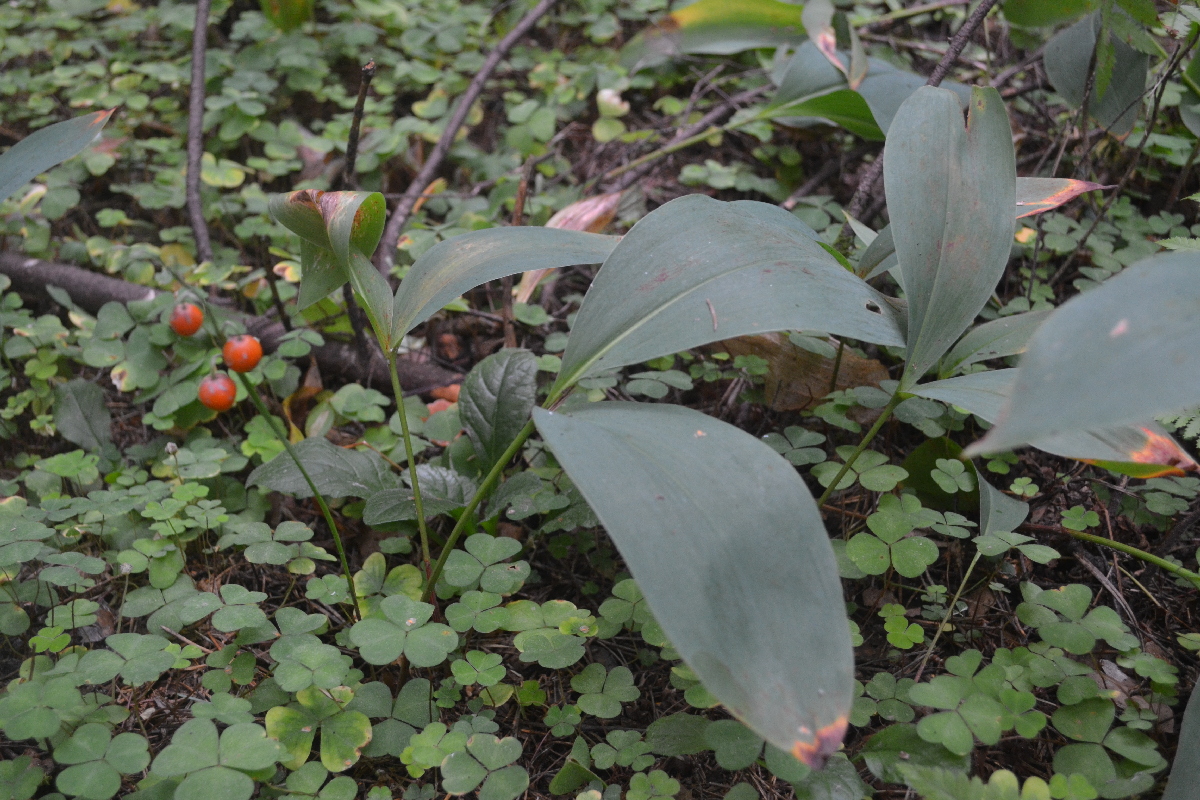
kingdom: Plantae
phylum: Tracheophyta
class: Liliopsida
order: Asparagales
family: Asparagaceae
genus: Convallaria
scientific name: Convallaria majalis
